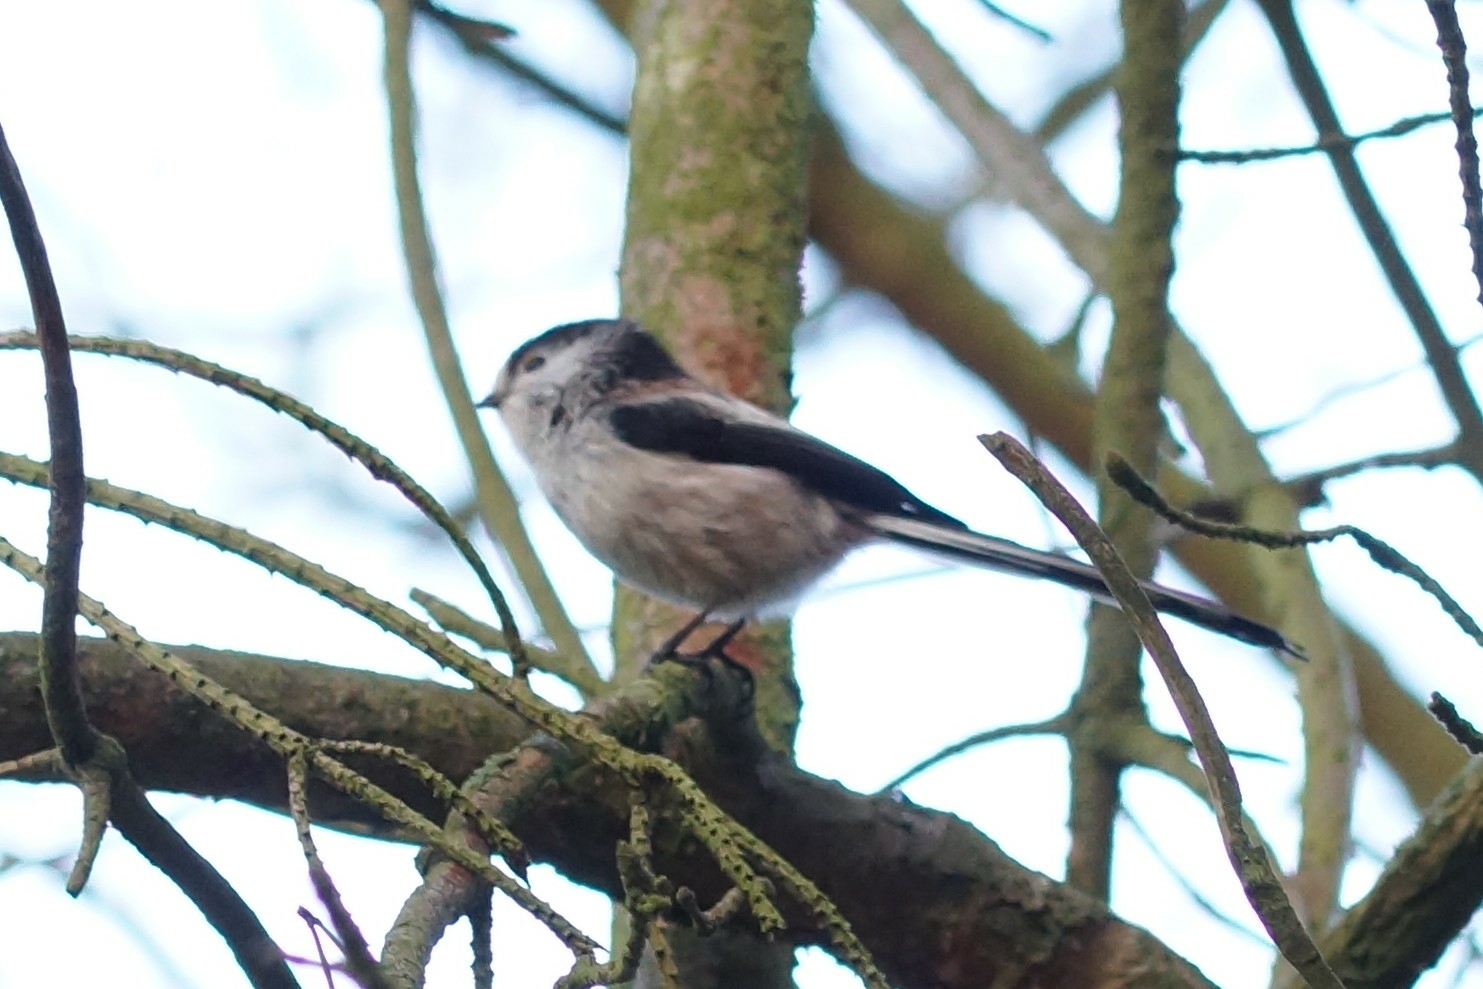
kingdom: Animalia
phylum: Chordata
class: Aves
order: Passeriformes
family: Aegithalidae
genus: Aegithalos
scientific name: Aegithalos caudatus
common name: Halemejse
